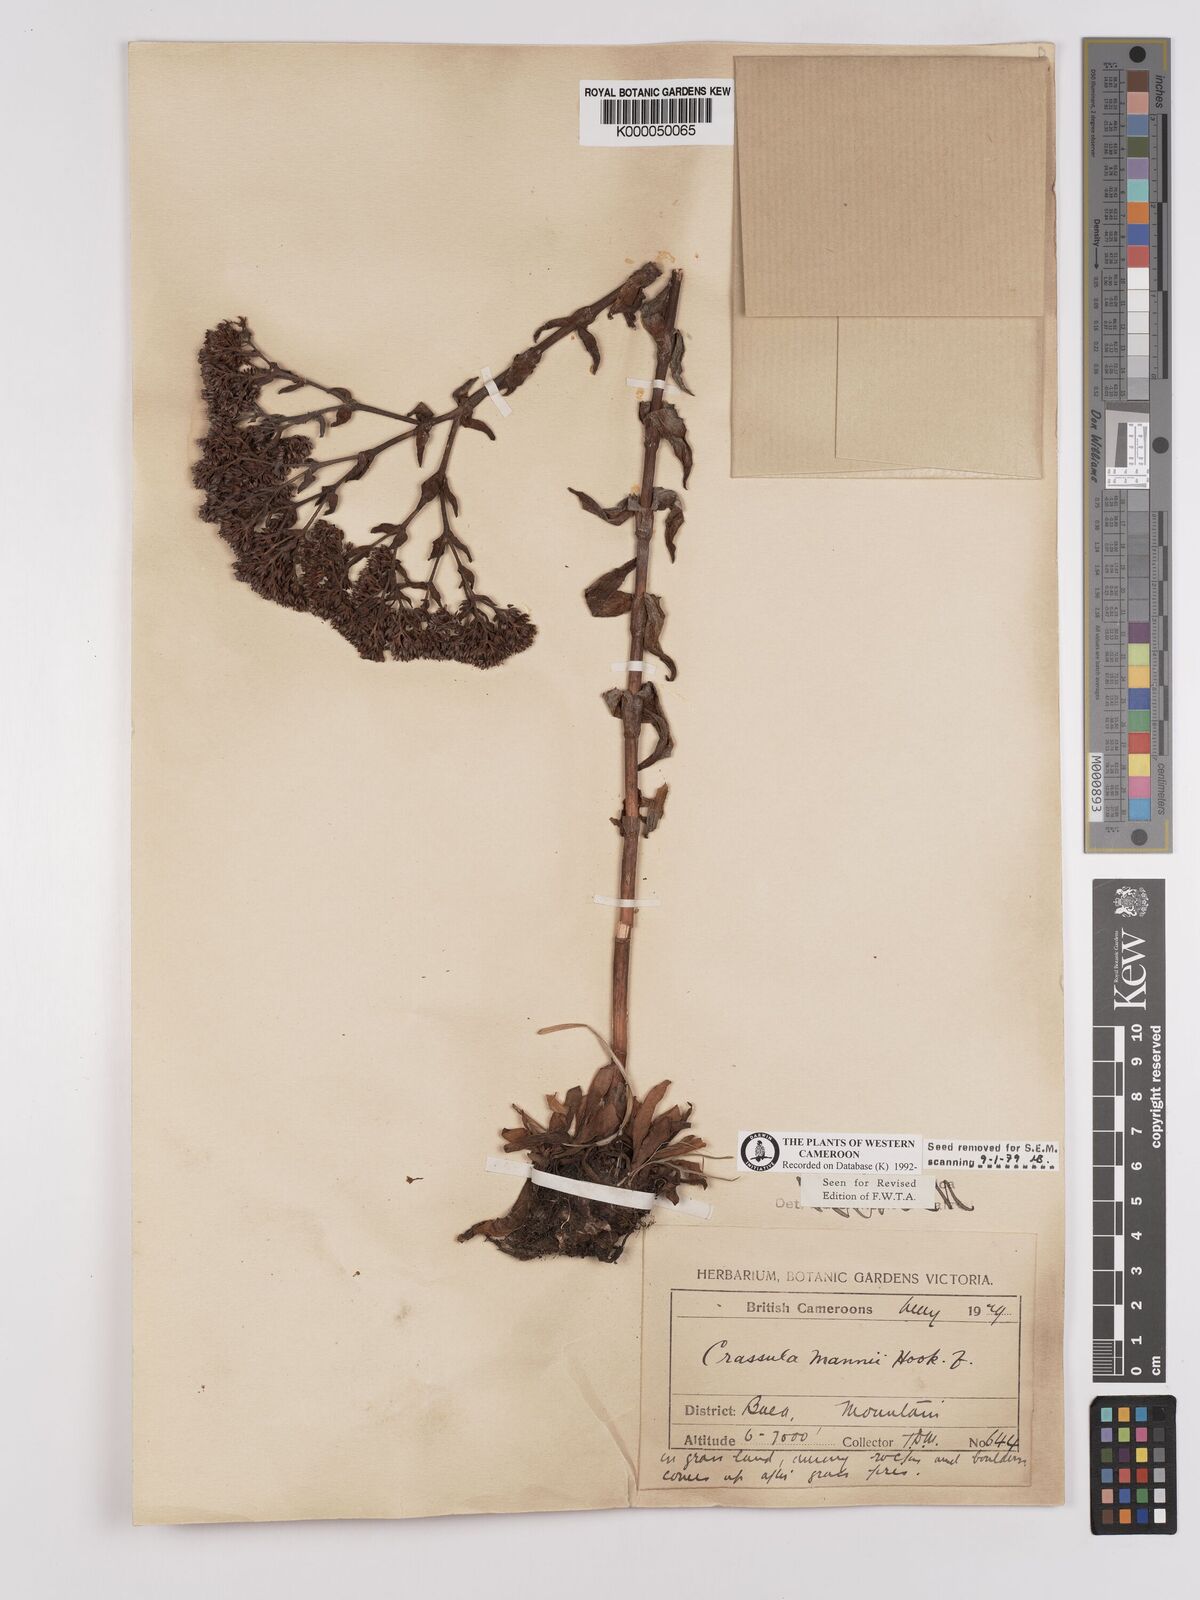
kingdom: Plantae
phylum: Tracheophyta
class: Magnoliopsida
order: Saxifragales
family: Crassulaceae
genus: Crassula
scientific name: Crassula vaginata
